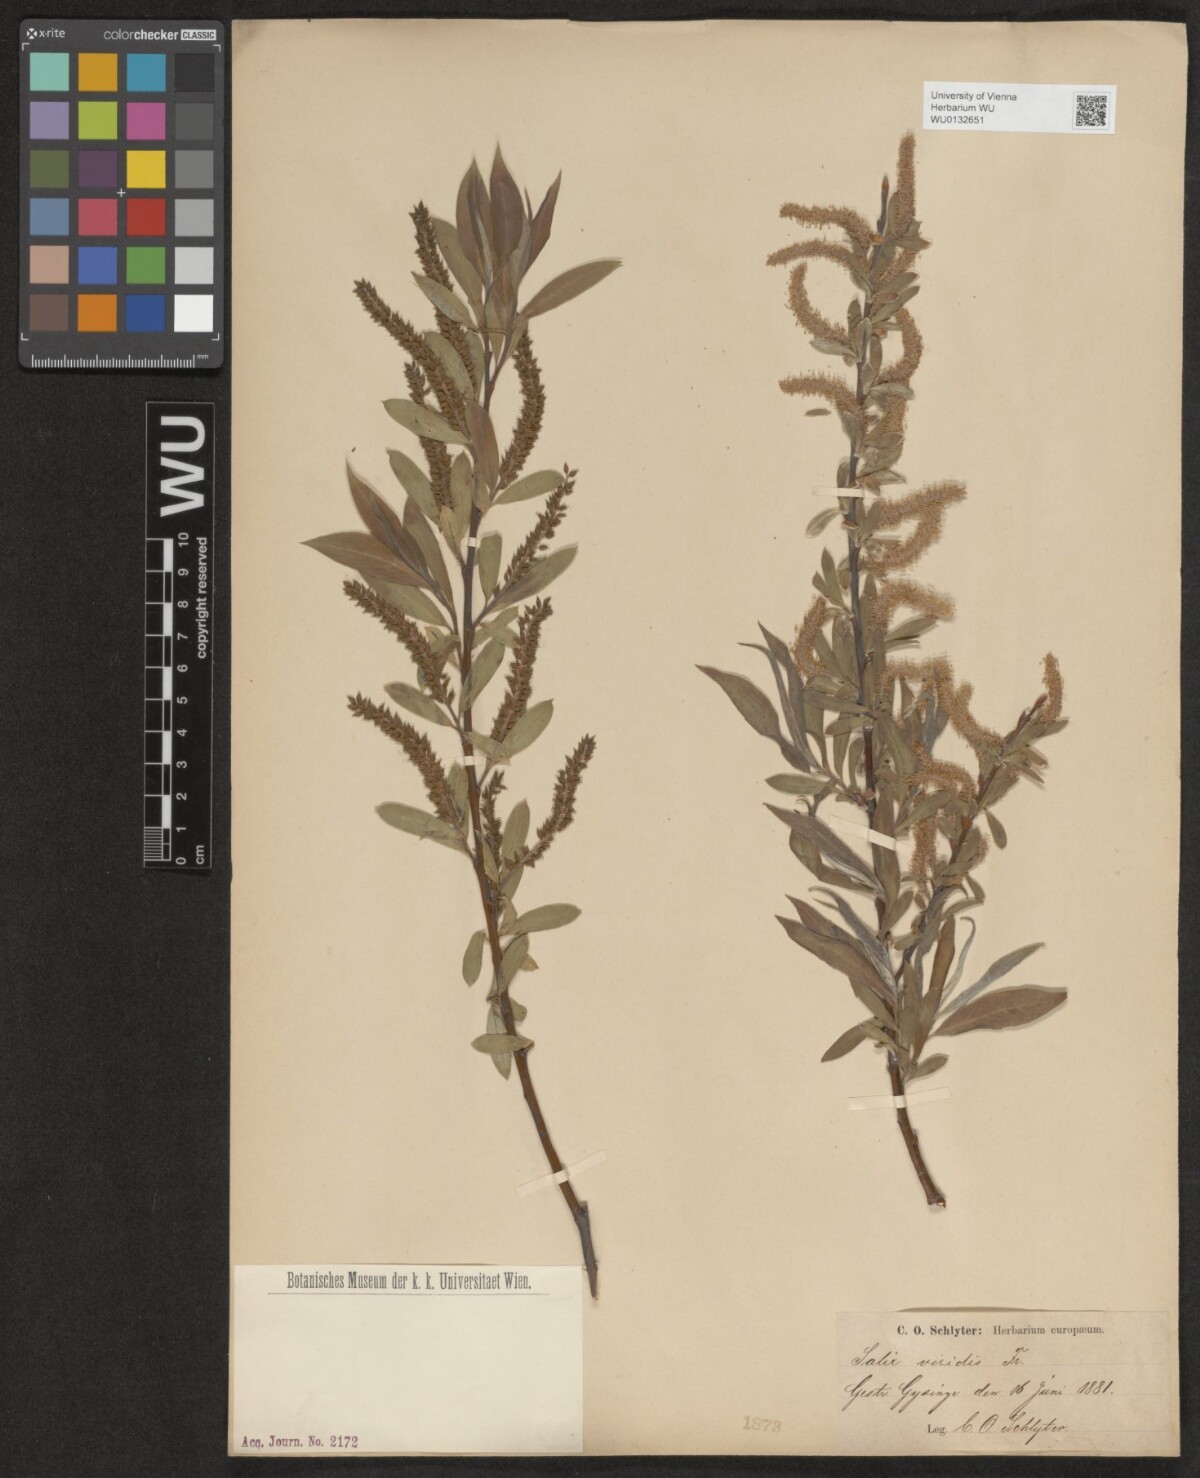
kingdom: Plantae
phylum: Tracheophyta
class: Magnoliopsida
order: Malpighiales
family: Salicaceae
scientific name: Salicaceae
